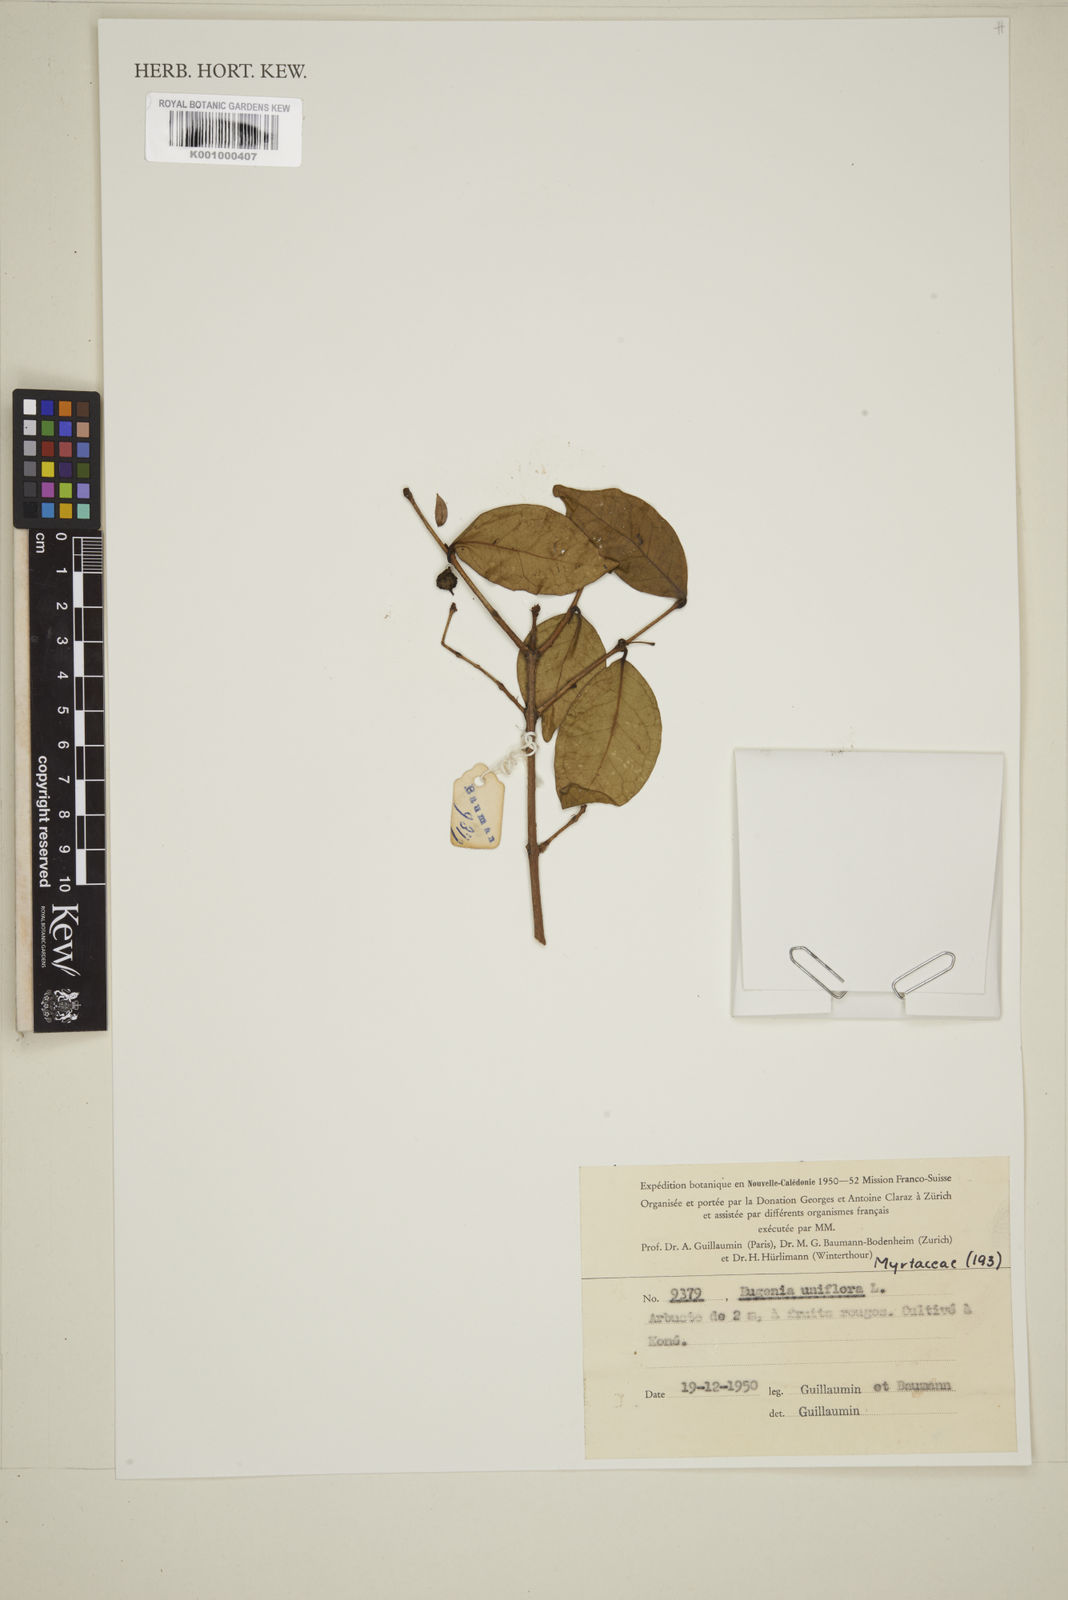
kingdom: Plantae
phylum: Tracheophyta
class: Magnoliopsida
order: Myrtales
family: Myrtaceae
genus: Eugenia
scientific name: Eugenia uniflora
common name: Surinam cherry
